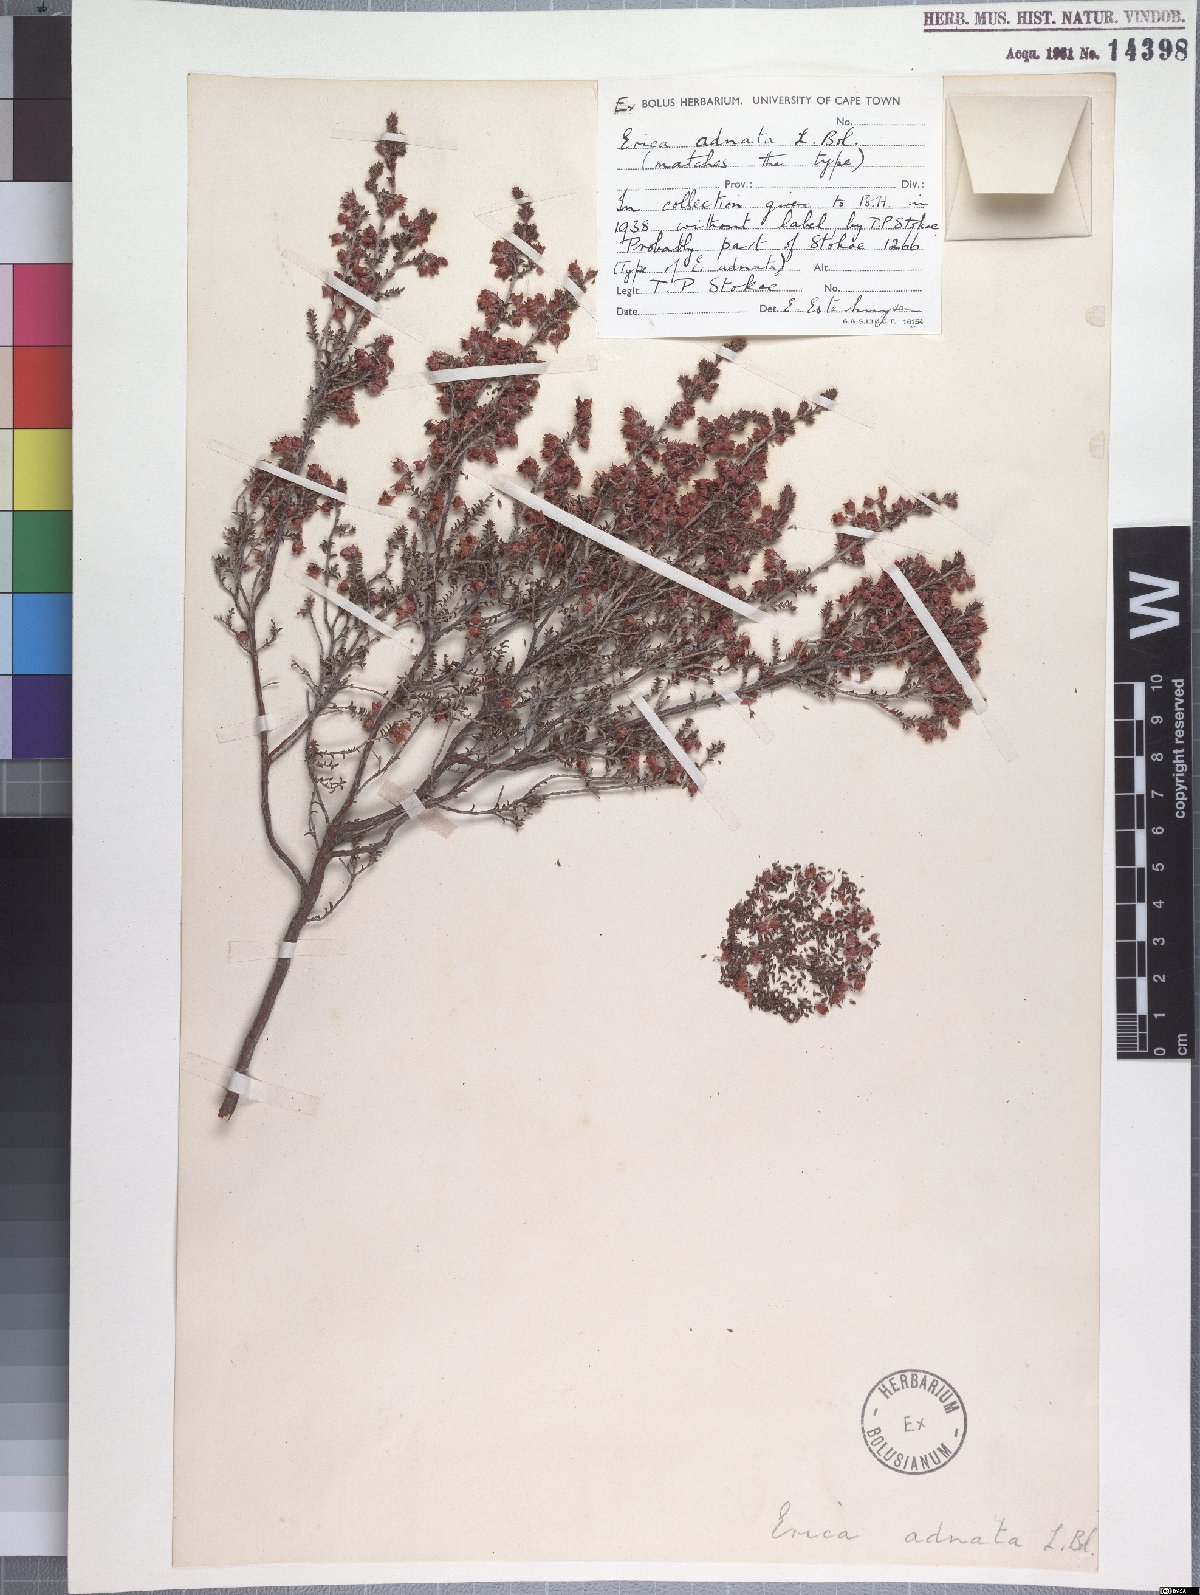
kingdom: Plantae
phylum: Tracheophyta
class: Magnoliopsida
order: Ericales
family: Ericaceae
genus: Erica
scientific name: Erica adnata
